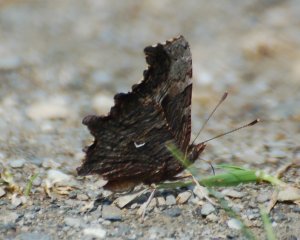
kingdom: Animalia
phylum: Arthropoda
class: Insecta
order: Lepidoptera
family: Nymphalidae
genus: Polygonia
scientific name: Polygonia progne
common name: Gray Comma
